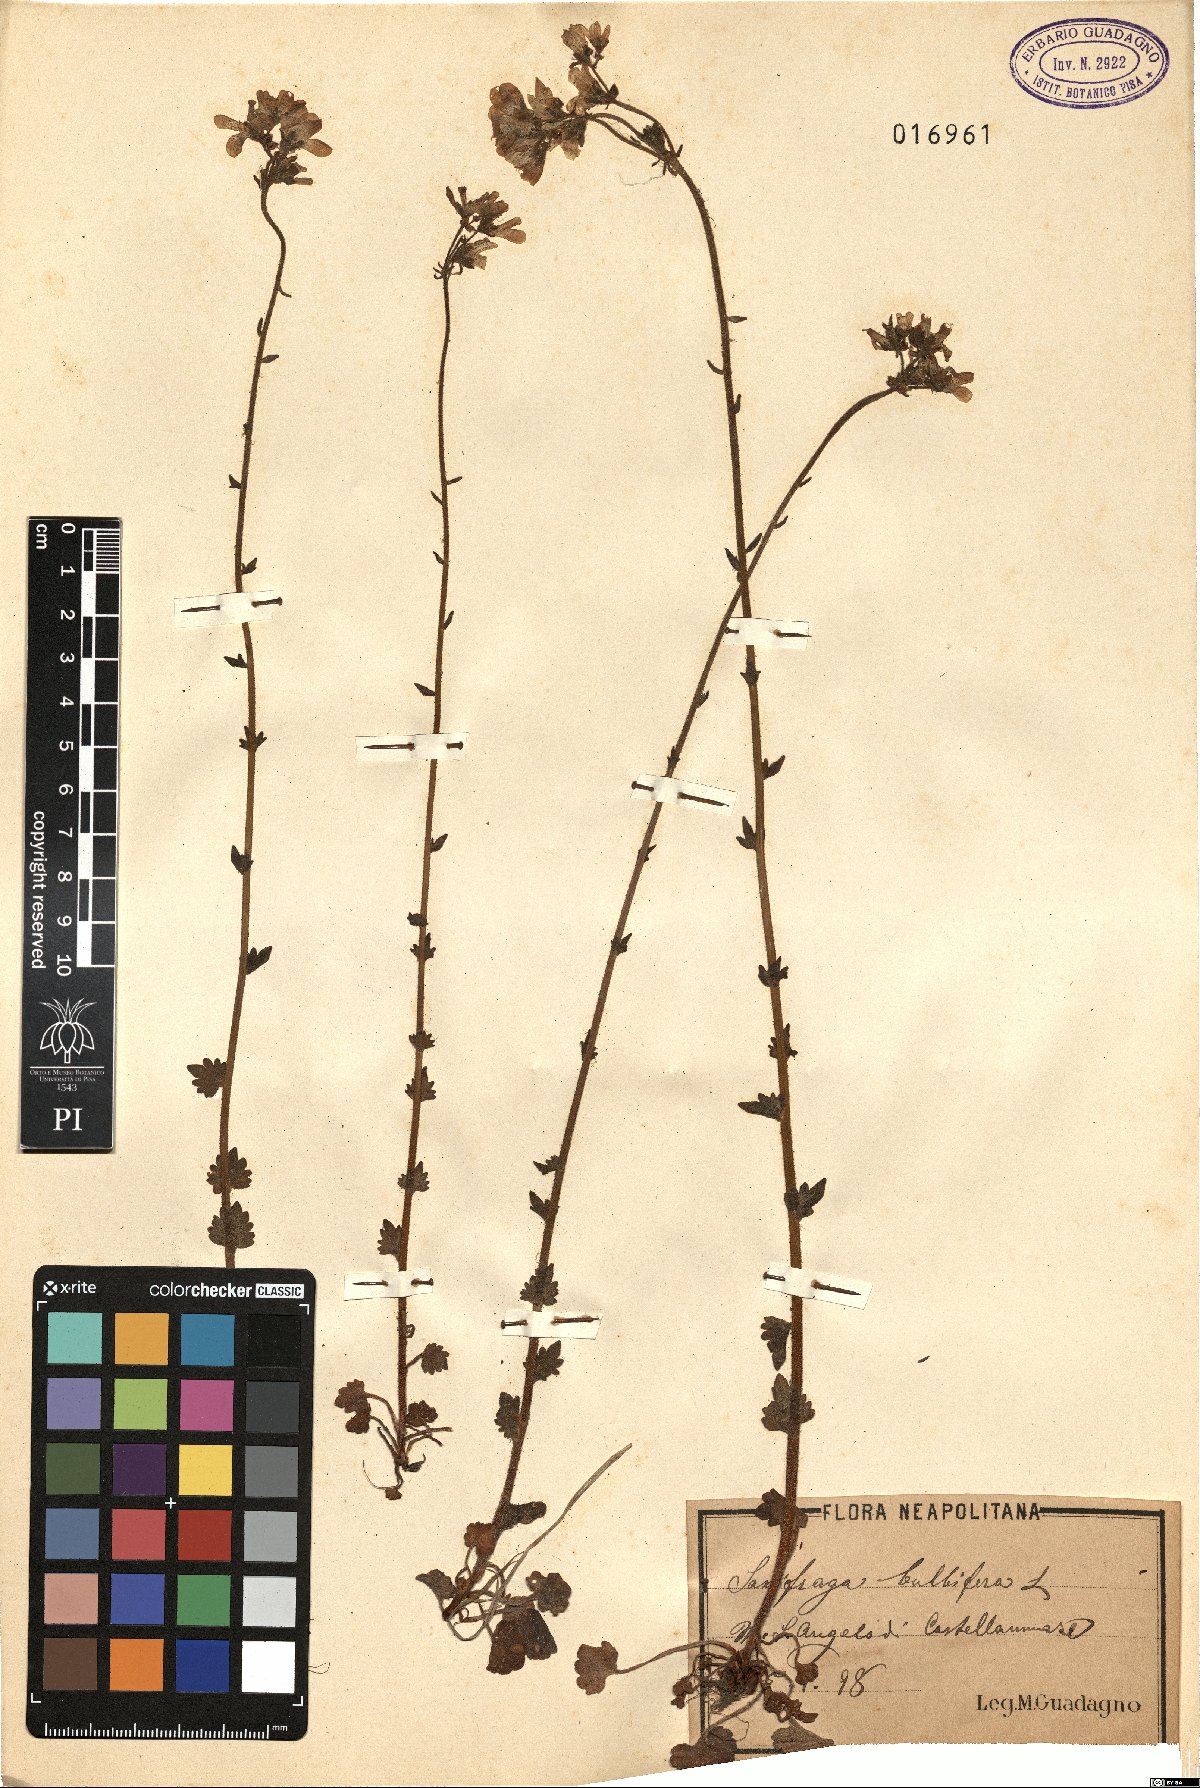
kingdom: Plantae
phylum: Tracheophyta
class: Magnoliopsida
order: Saxifragales
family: Saxifragaceae
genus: Saxifraga
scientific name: Saxifraga bulbifera
